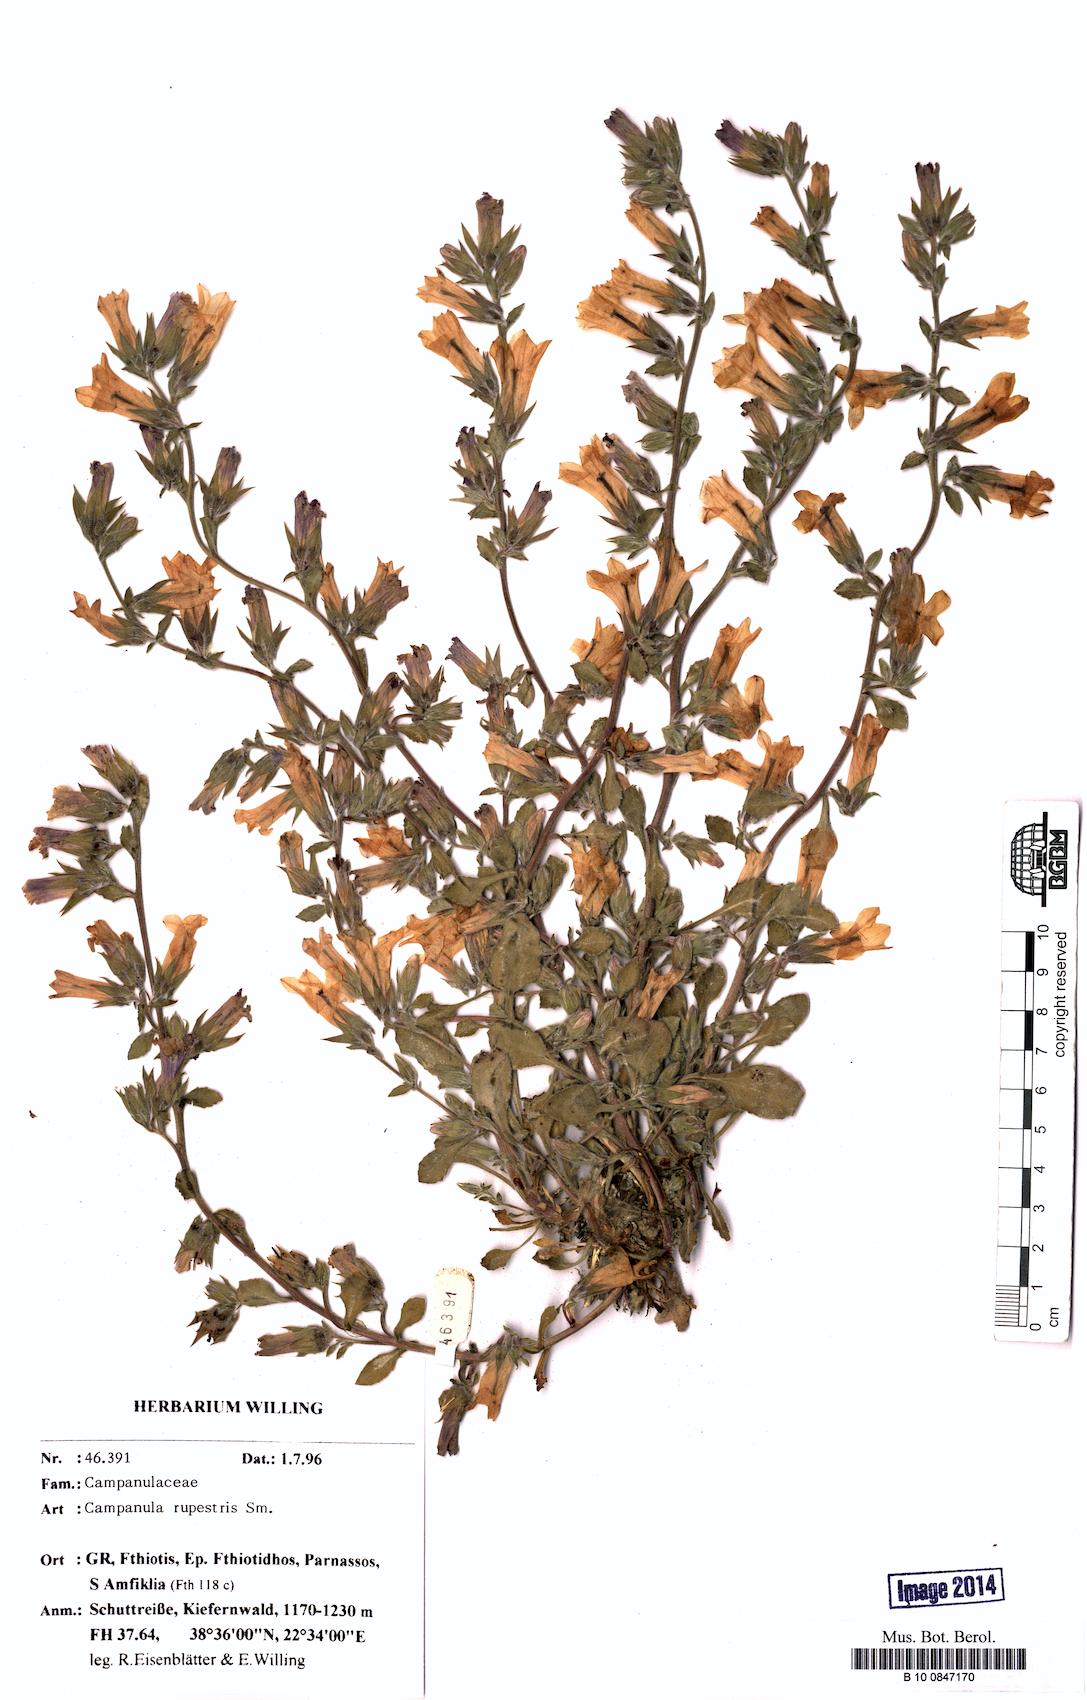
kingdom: Plantae
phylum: Tracheophyta
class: Magnoliopsida
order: Asterales
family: Campanulaceae
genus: Campanula
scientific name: Campanula rupestris
